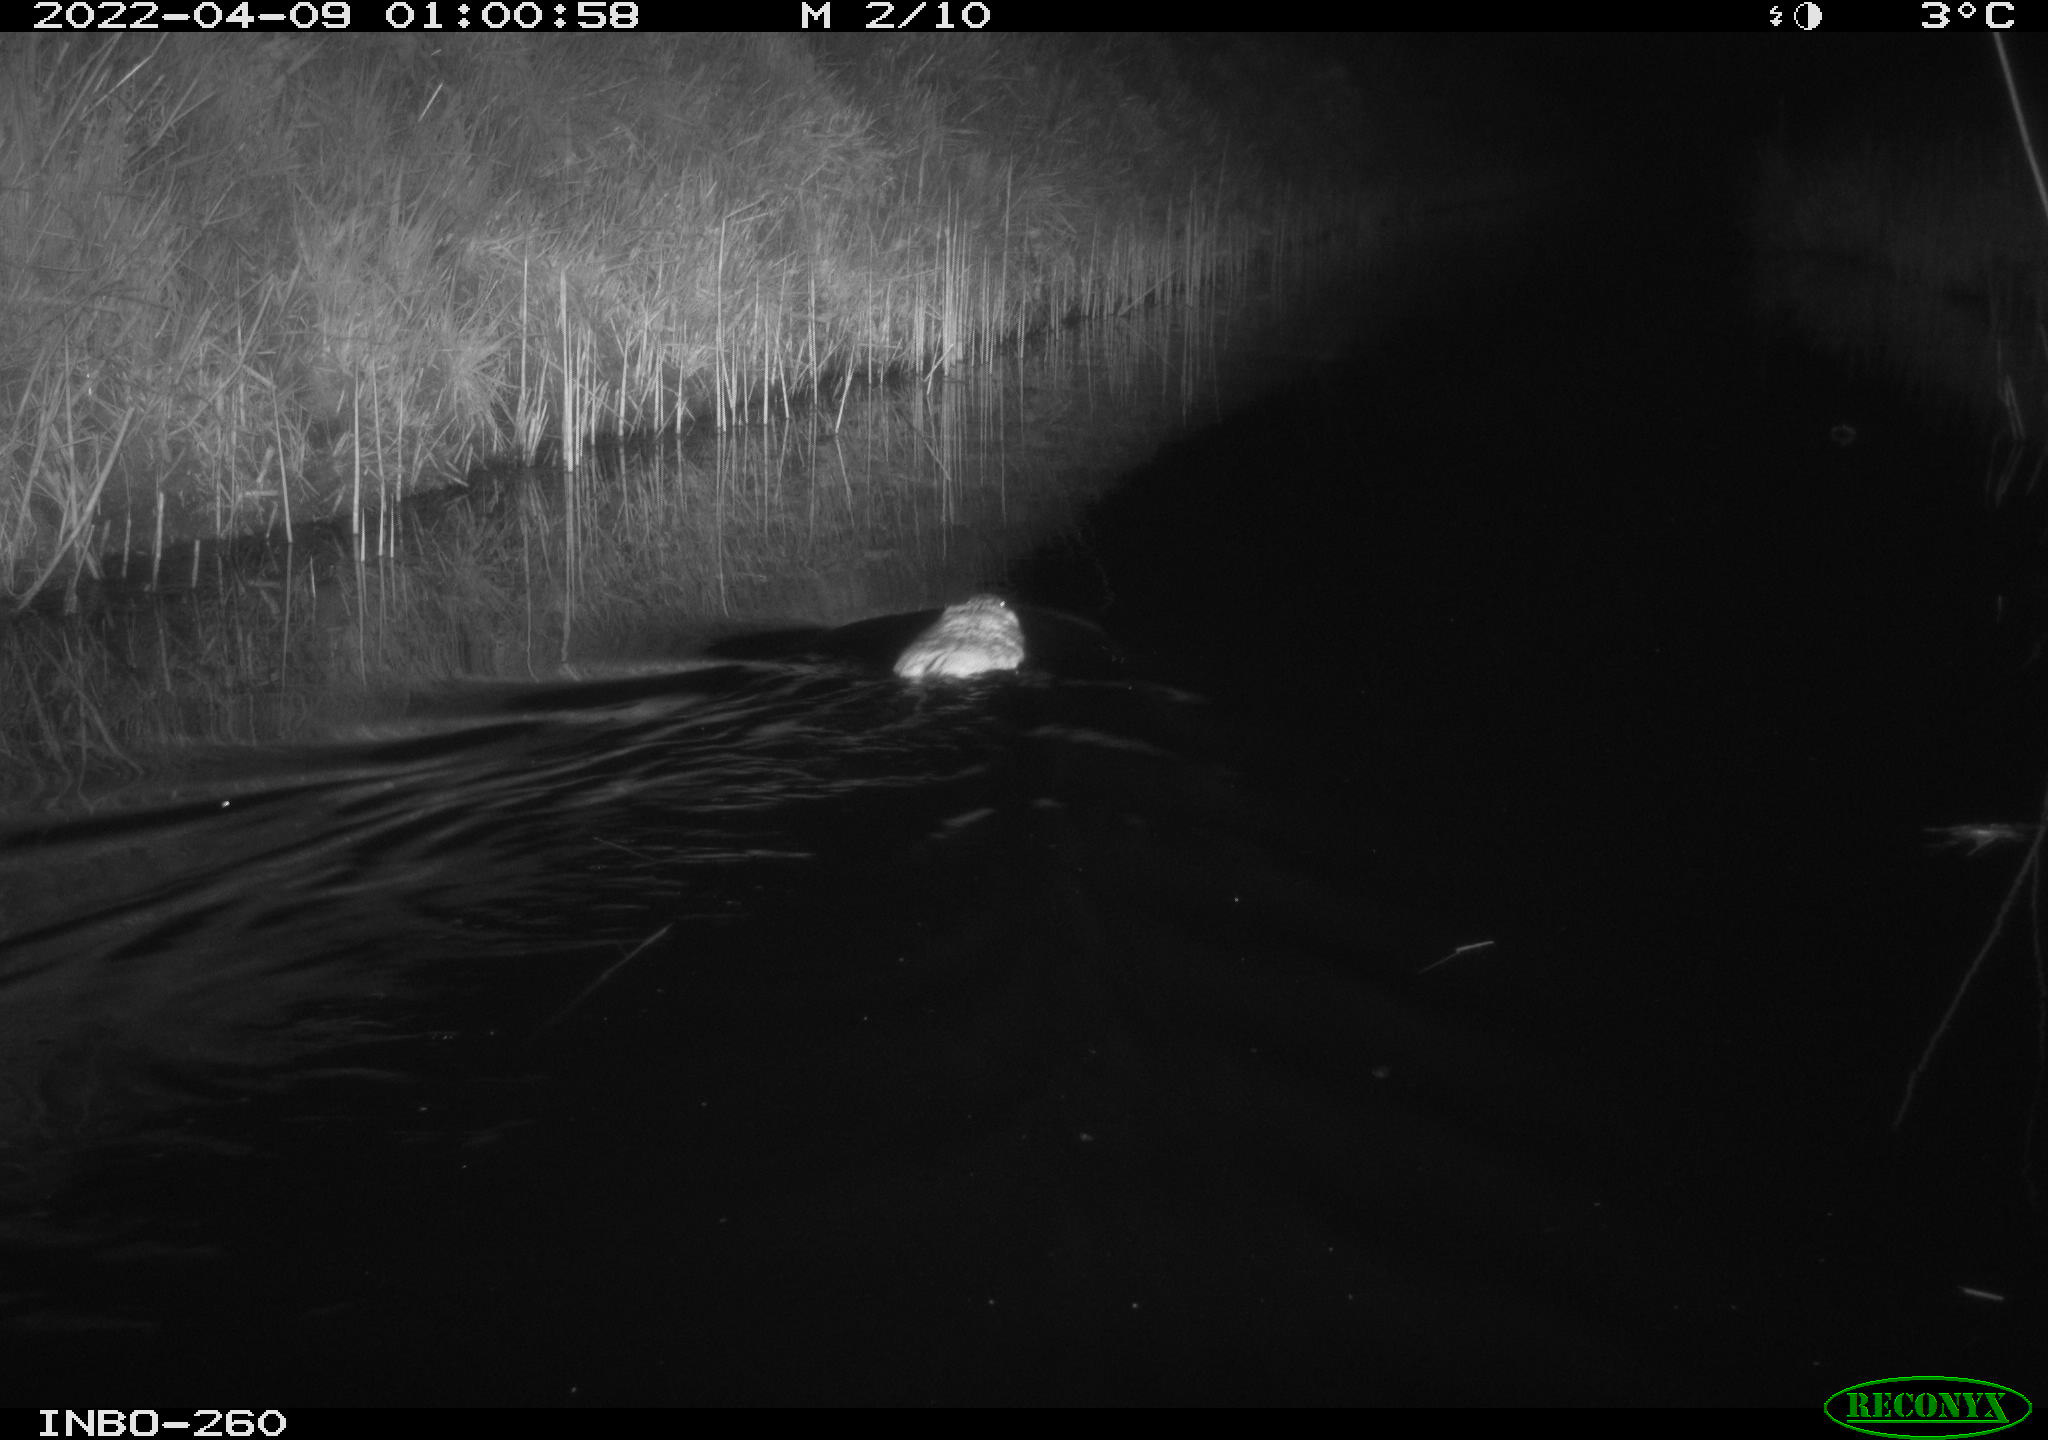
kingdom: Animalia
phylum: Chordata
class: Mammalia
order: Rodentia
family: Cricetidae
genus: Ondatra
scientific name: Ondatra zibethicus
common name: Muskrat
